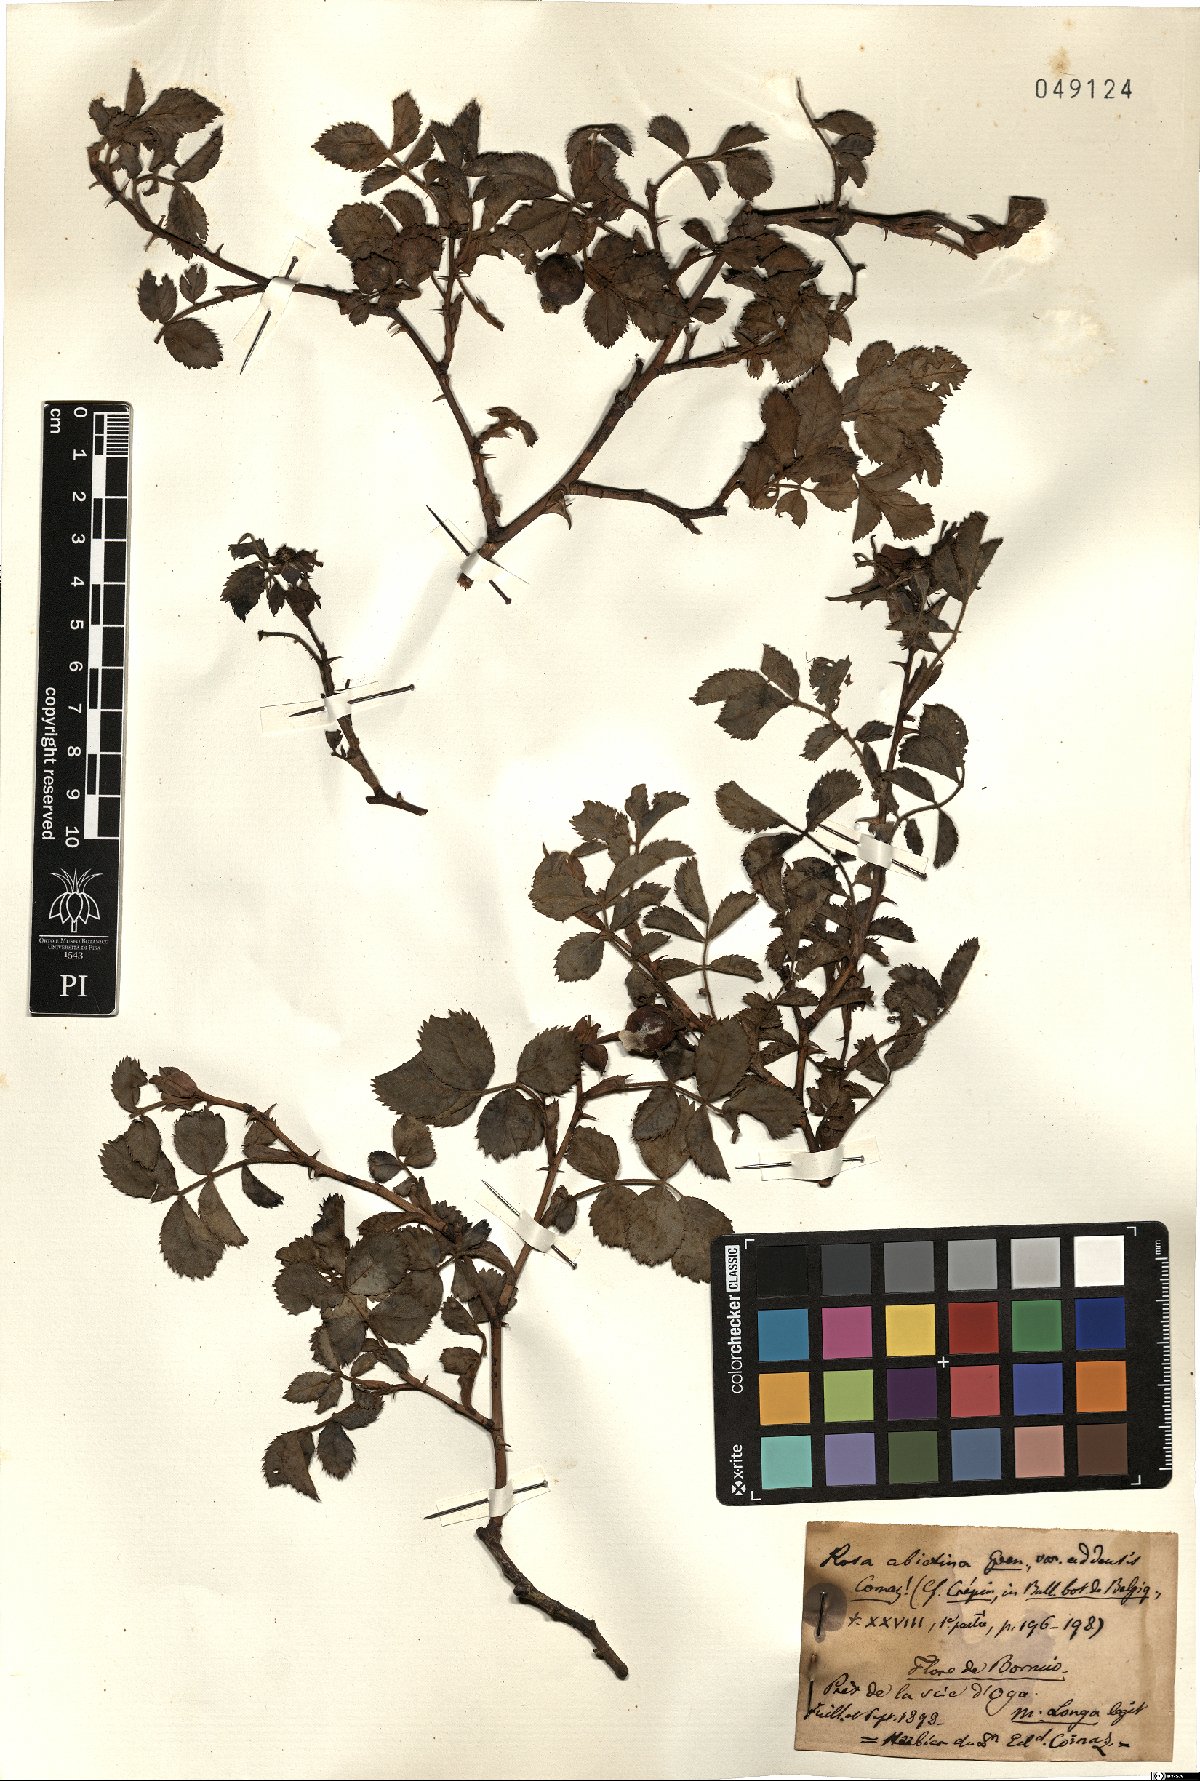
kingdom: Plantae
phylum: Tracheophyta
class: Magnoliopsida
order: Rosales
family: Rosaceae
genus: Rosa
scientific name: Rosa abietina
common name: Needle rose
